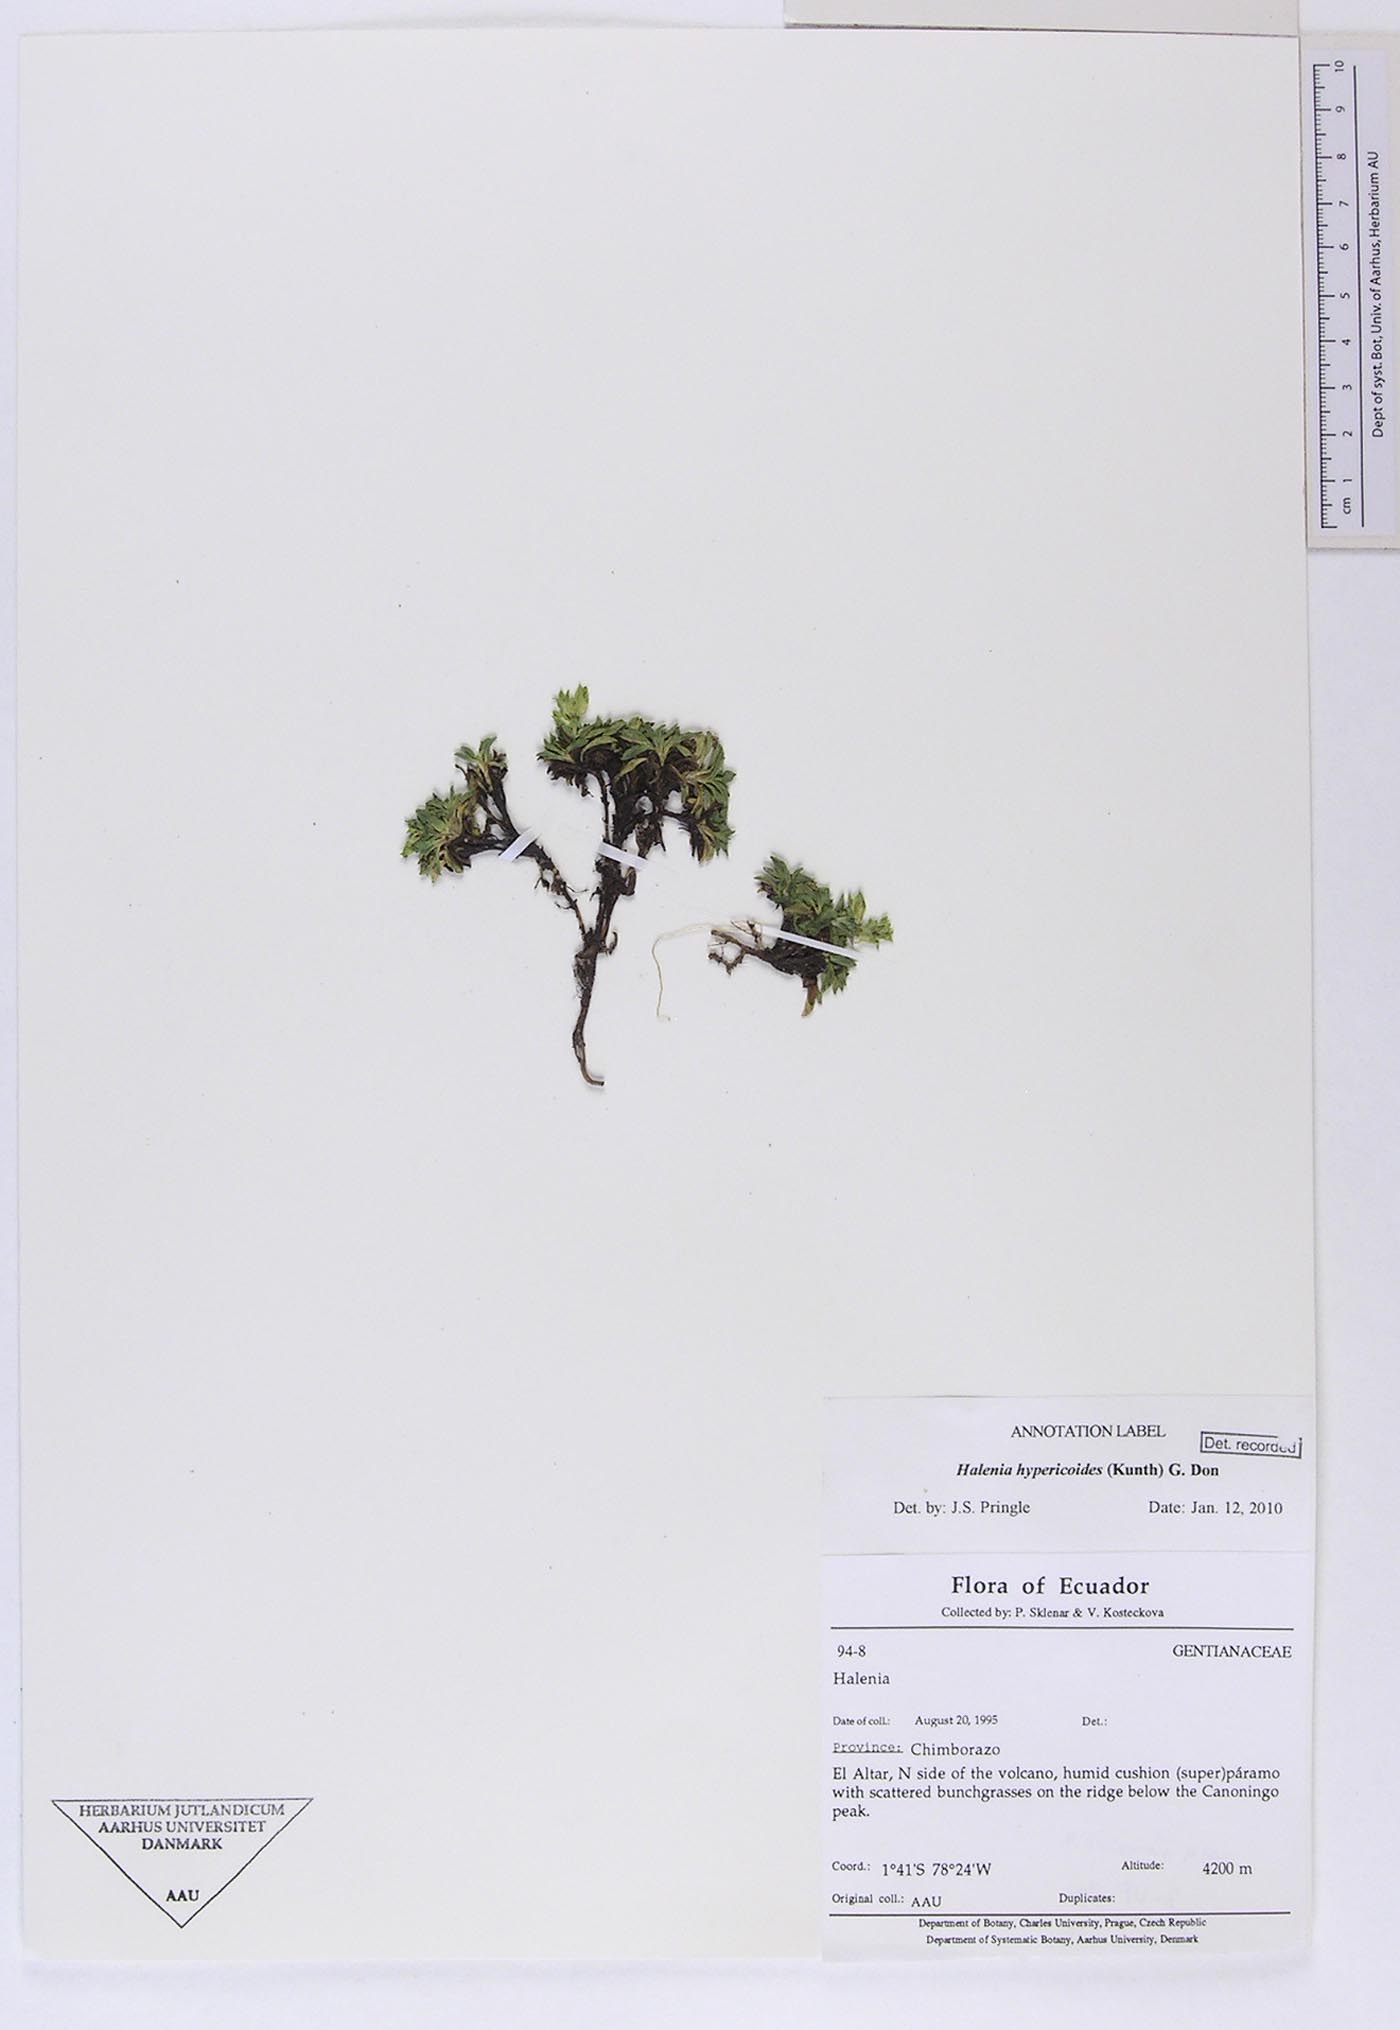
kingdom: Plantae
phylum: Tracheophyta
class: Magnoliopsida
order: Gentianales
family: Gentianaceae
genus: Halenia
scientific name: Halenia hypericoides
